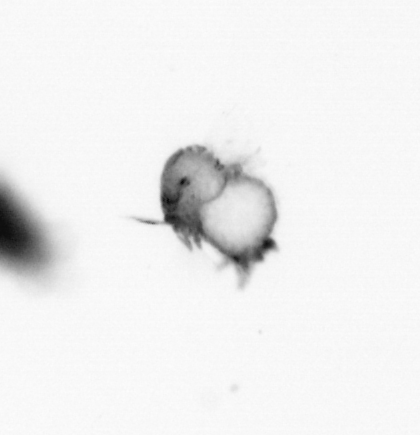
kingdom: Animalia
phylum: Annelida
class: Polychaeta
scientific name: Polychaeta
